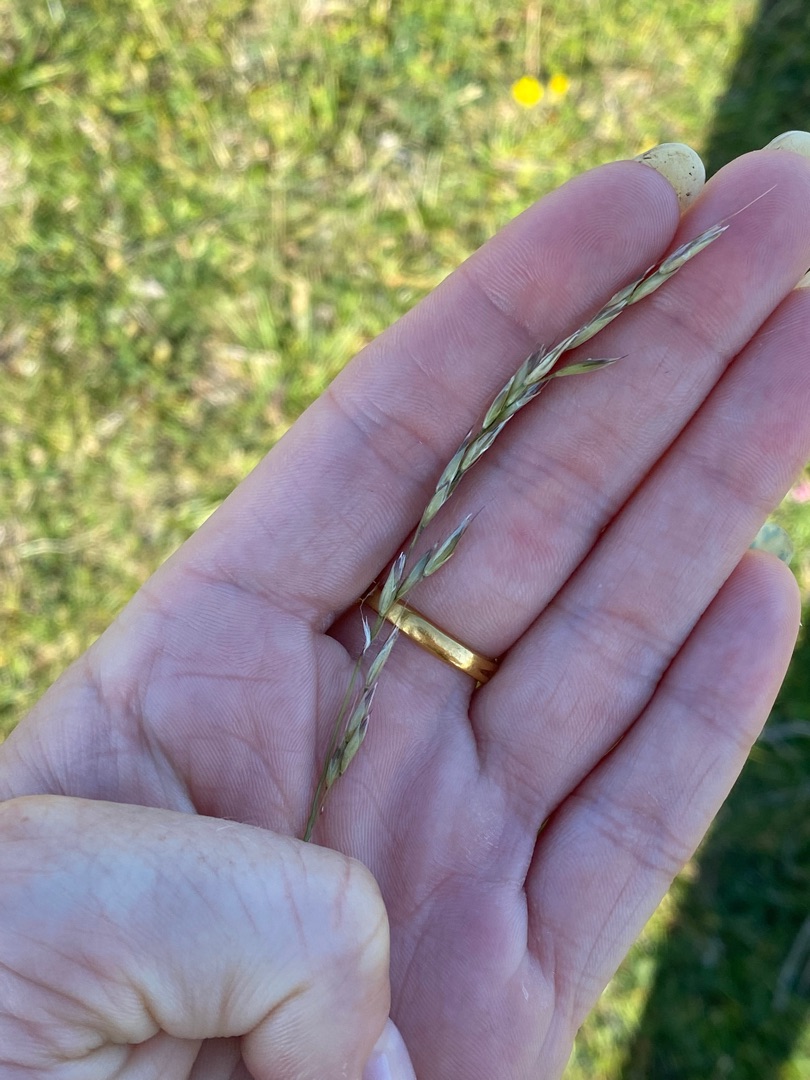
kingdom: Plantae
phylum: Tracheophyta
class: Liliopsida
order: Poales
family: Poaceae
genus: Arrhenatherum
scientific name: Arrhenatherum elatius
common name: Draphavre
